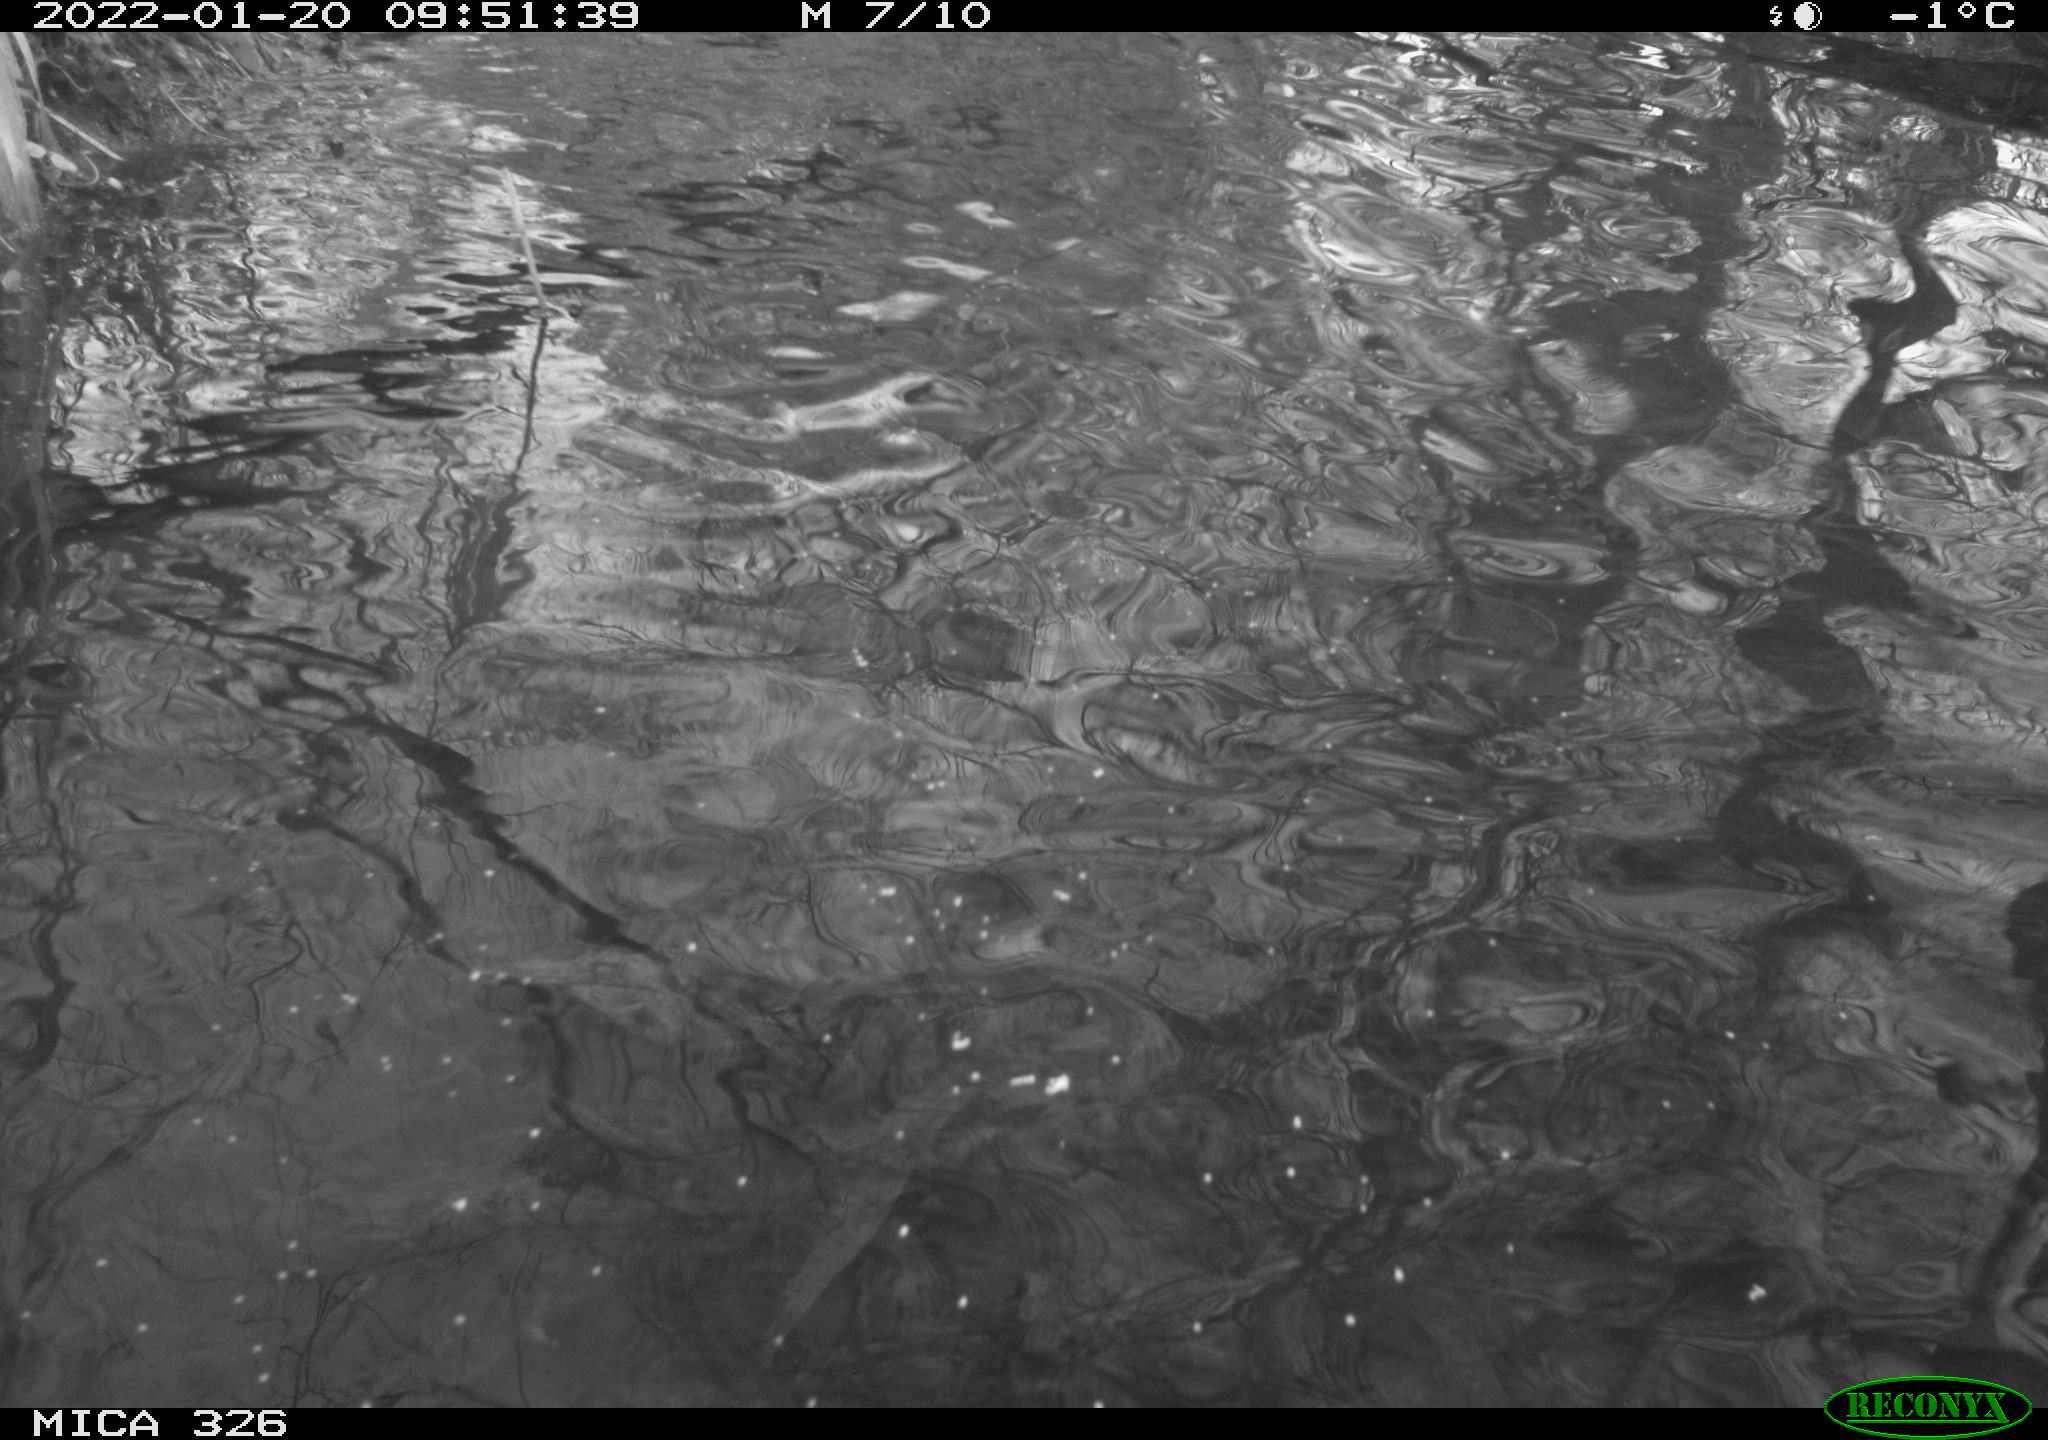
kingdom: Animalia
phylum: Chordata
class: Aves
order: Gruiformes
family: Rallidae
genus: Gallinula
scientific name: Gallinula chloropus
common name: Common moorhen
